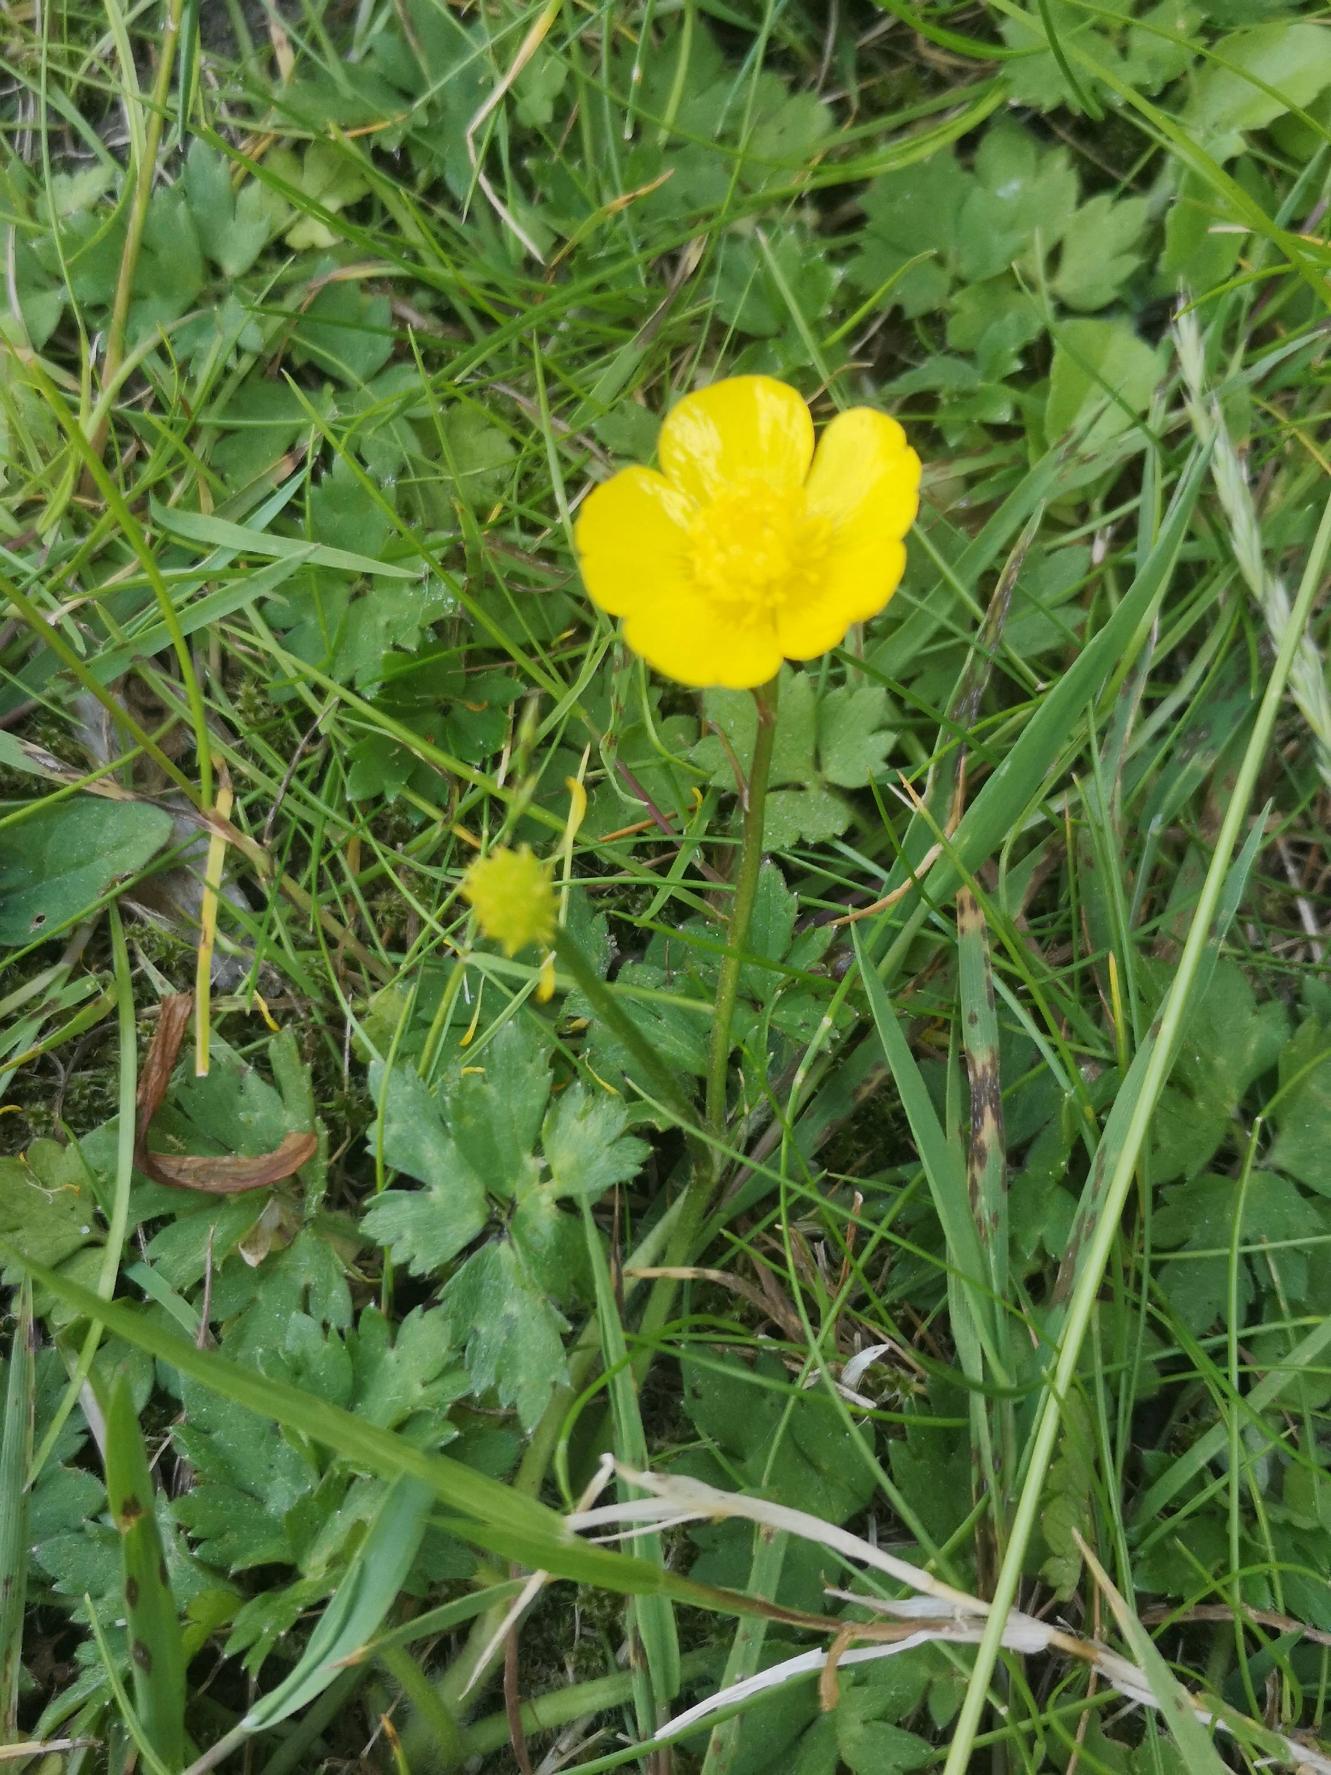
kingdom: Plantae
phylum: Tracheophyta
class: Magnoliopsida
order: Ranunculales
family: Ranunculaceae
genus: Ranunculus
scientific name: Ranunculus repens
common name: Lav ranunkel
